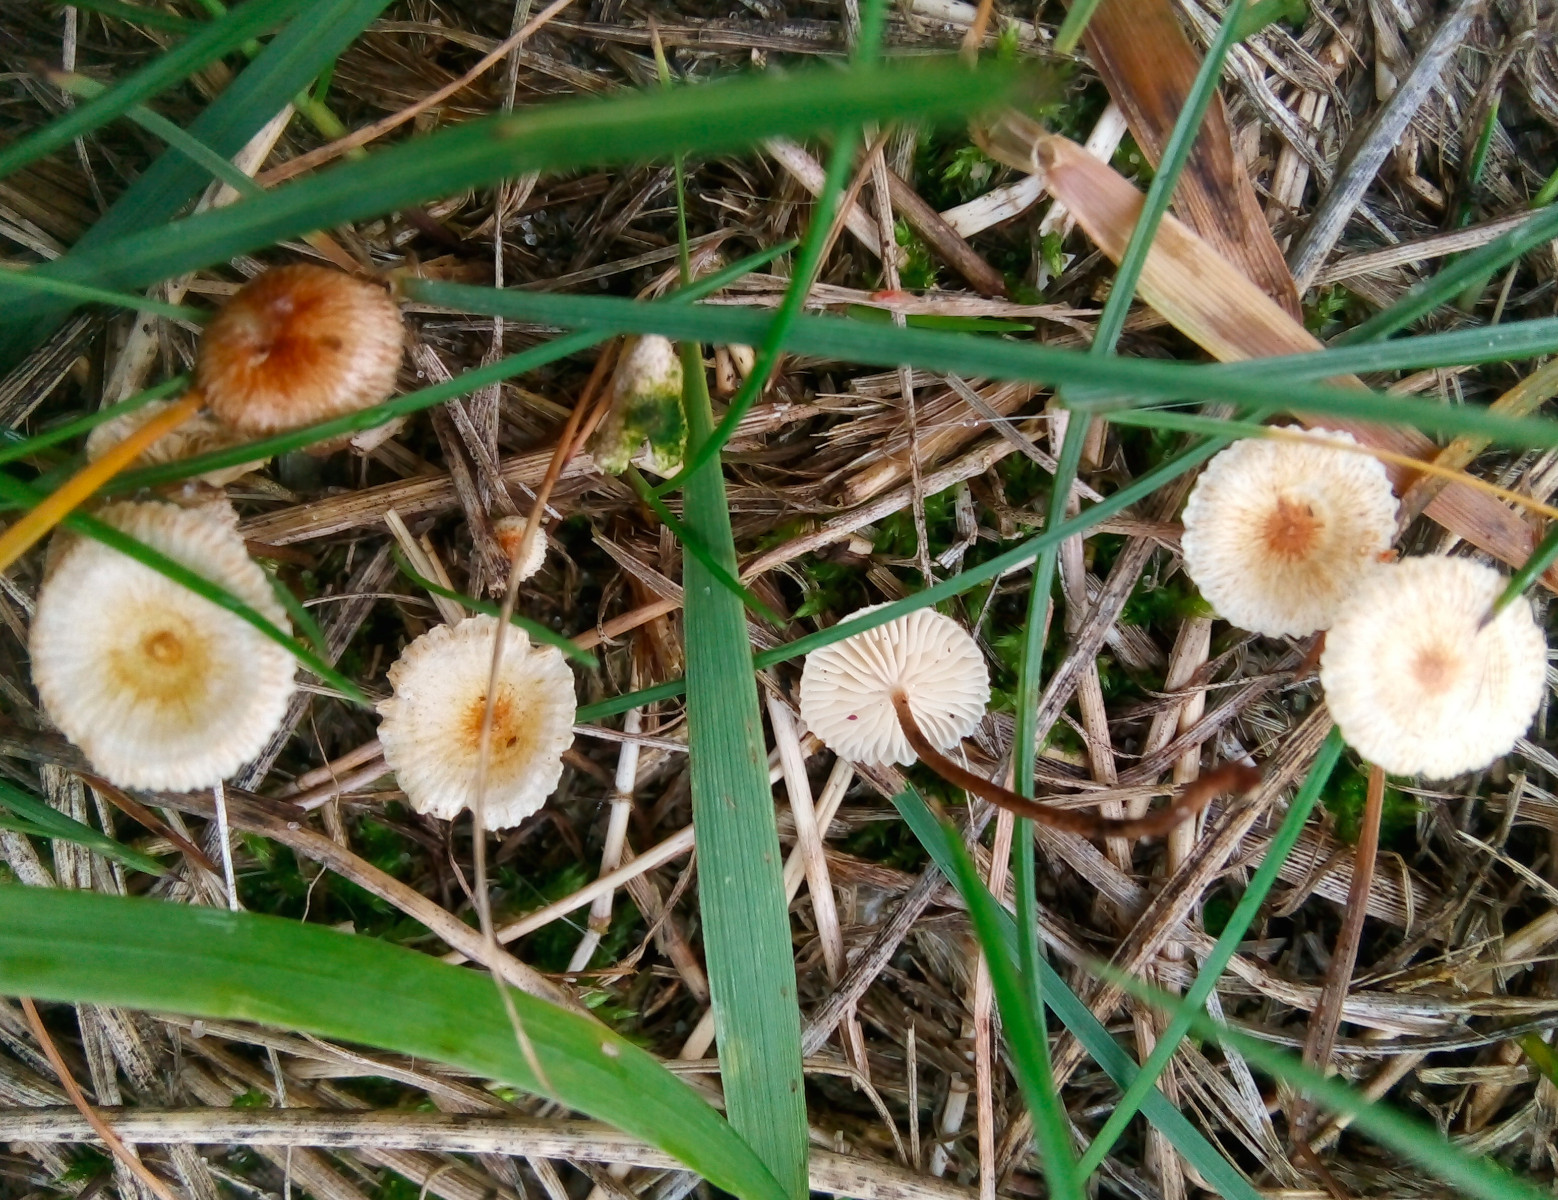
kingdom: Fungi
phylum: Basidiomycota
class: Agaricomycetes
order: Agaricales
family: Marasmiaceae
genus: Crinipellis
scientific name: Crinipellis scabella
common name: børstefod
